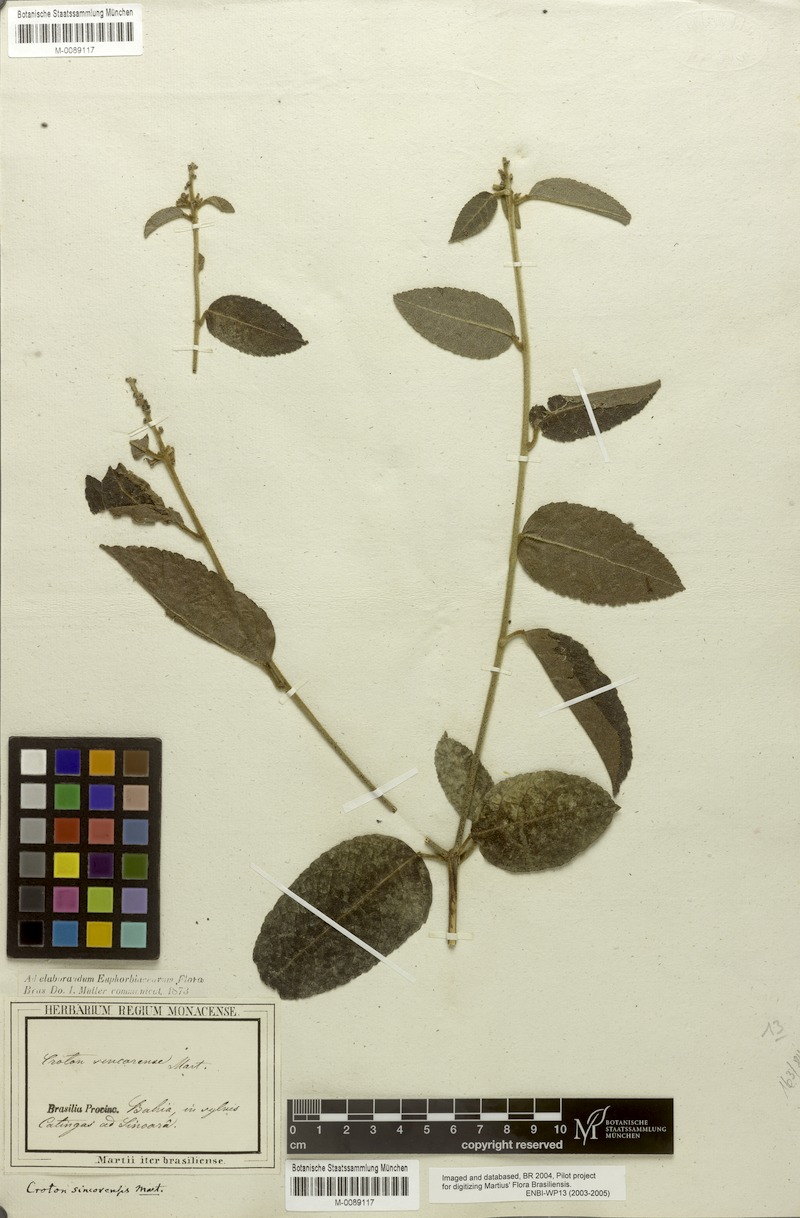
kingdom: Plantae
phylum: Tracheophyta
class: Magnoliopsida
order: Malpighiales
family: Euphorbiaceae
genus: Croton
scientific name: Croton sincorensis
